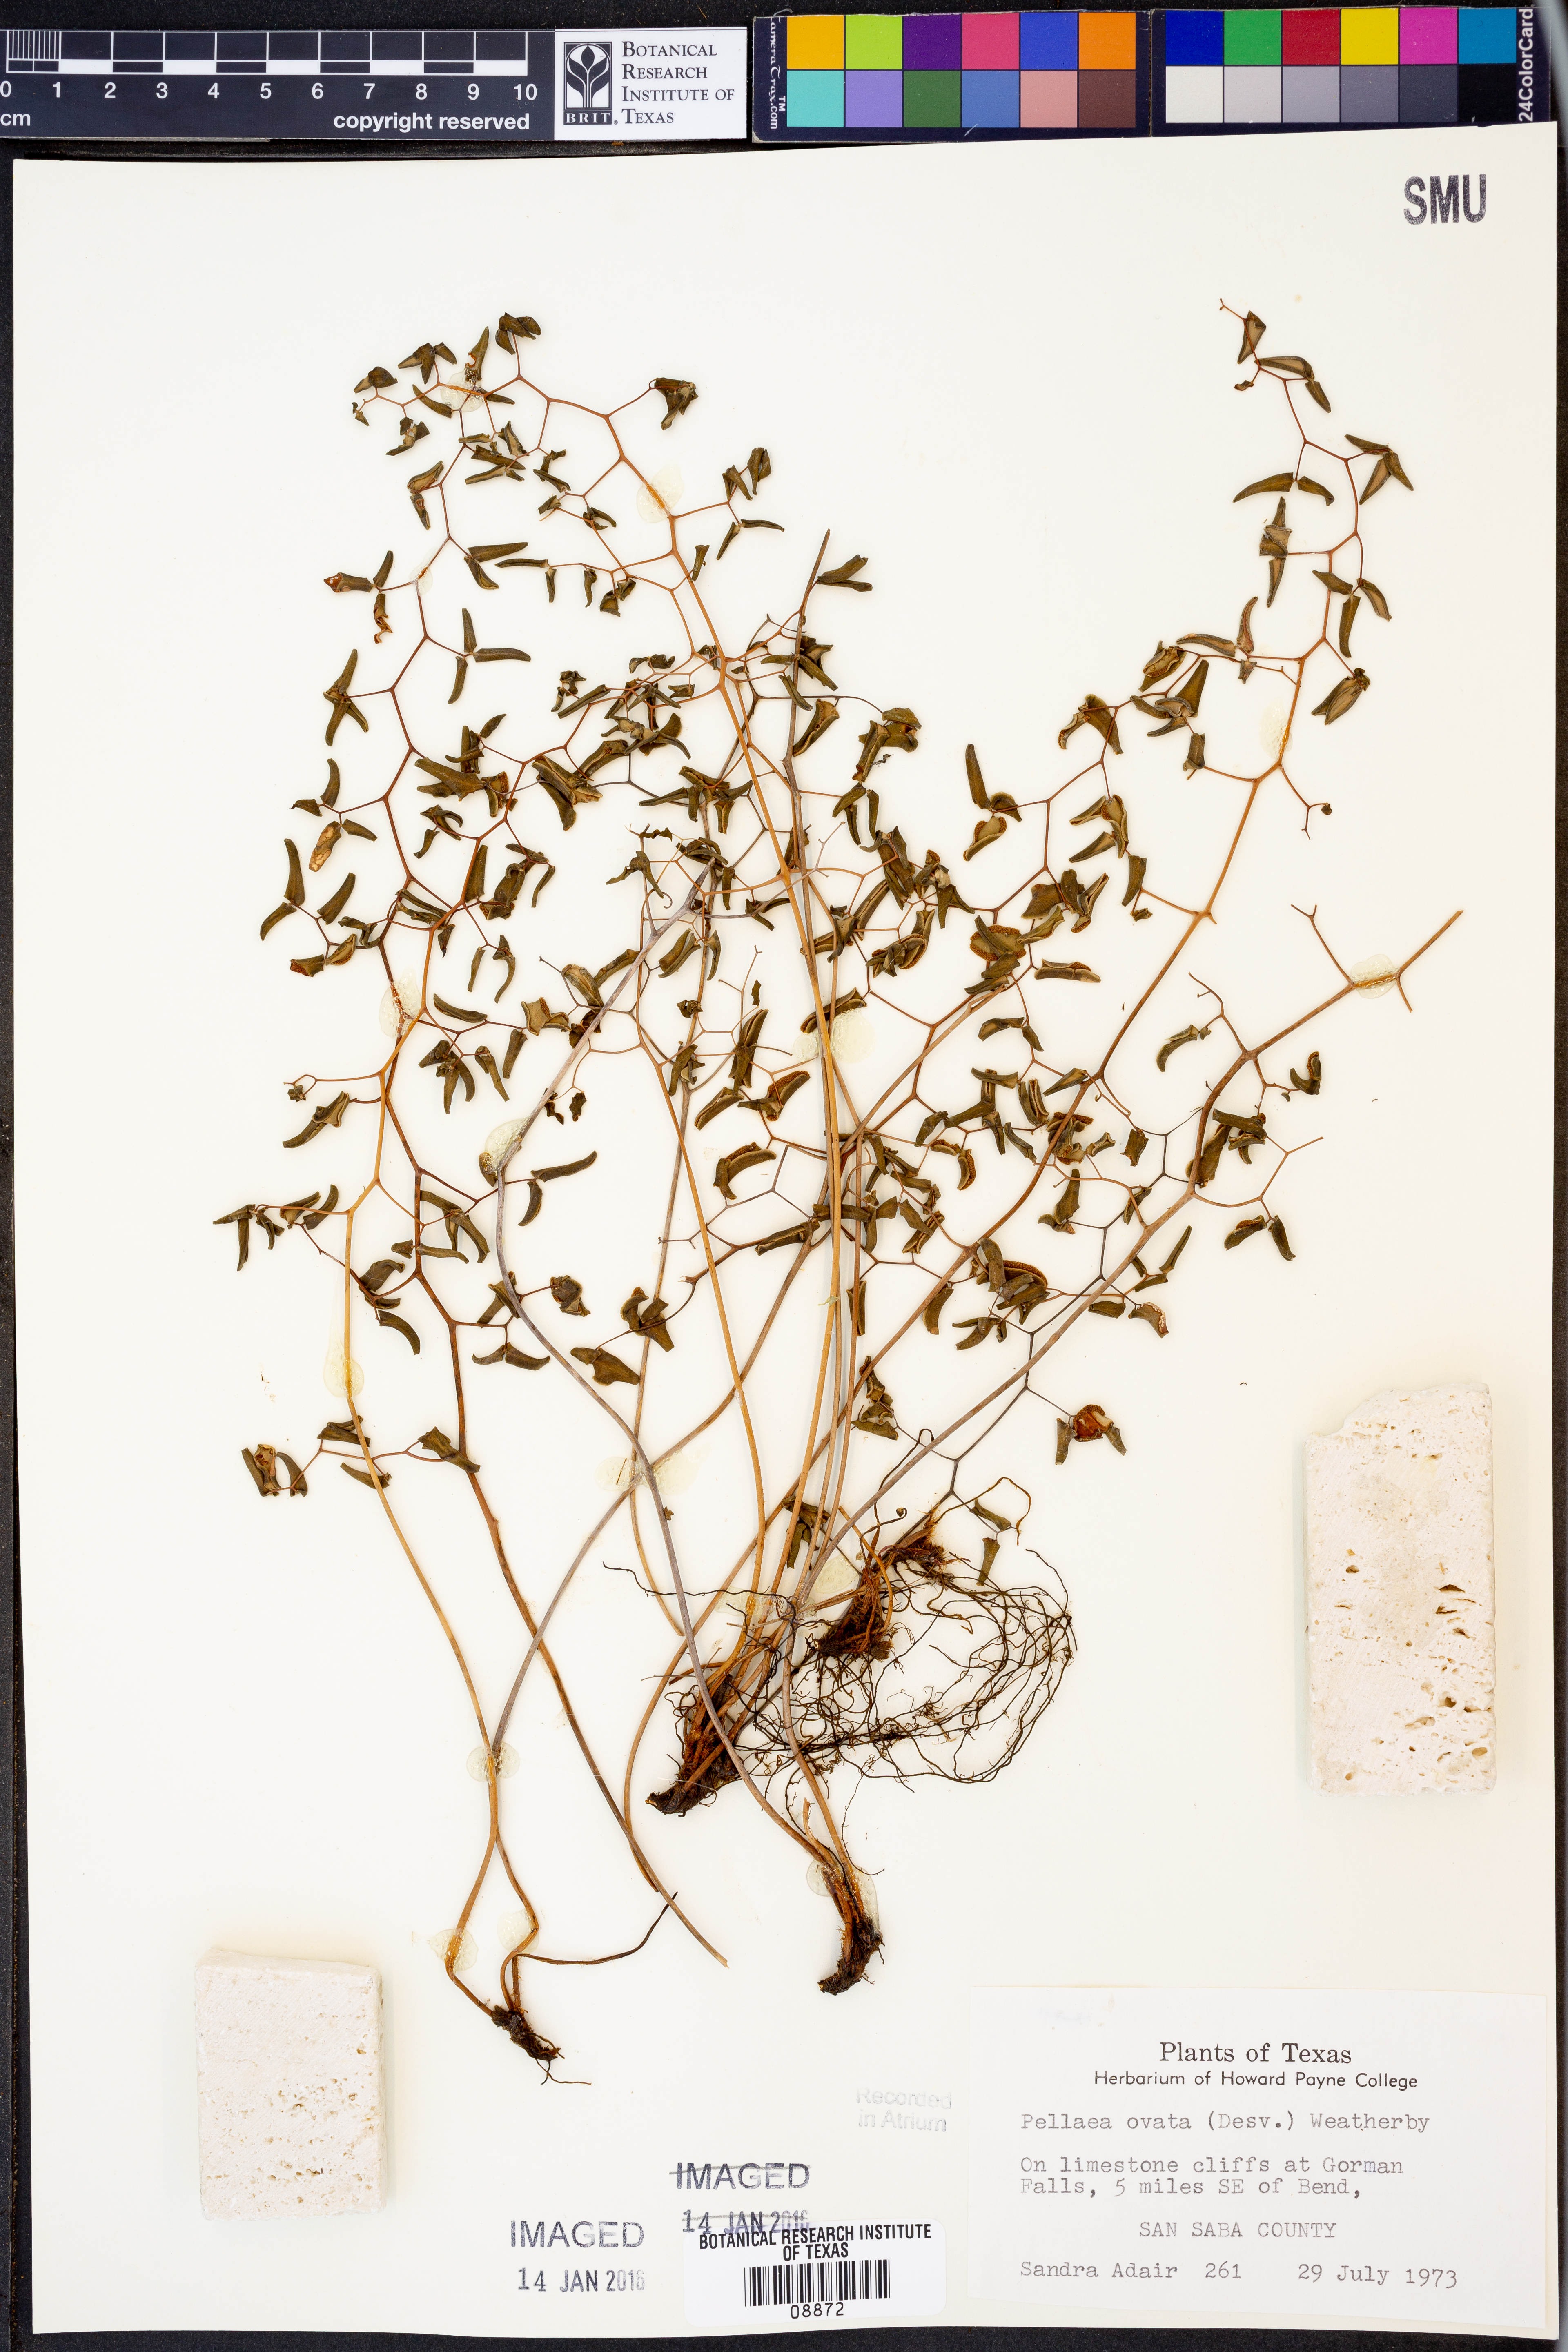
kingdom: Plantae
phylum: Tracheophyta
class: Polypodiopsida
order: Polypodiales
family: Pteridaceae
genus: Pellaea
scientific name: Pellaea ovata
